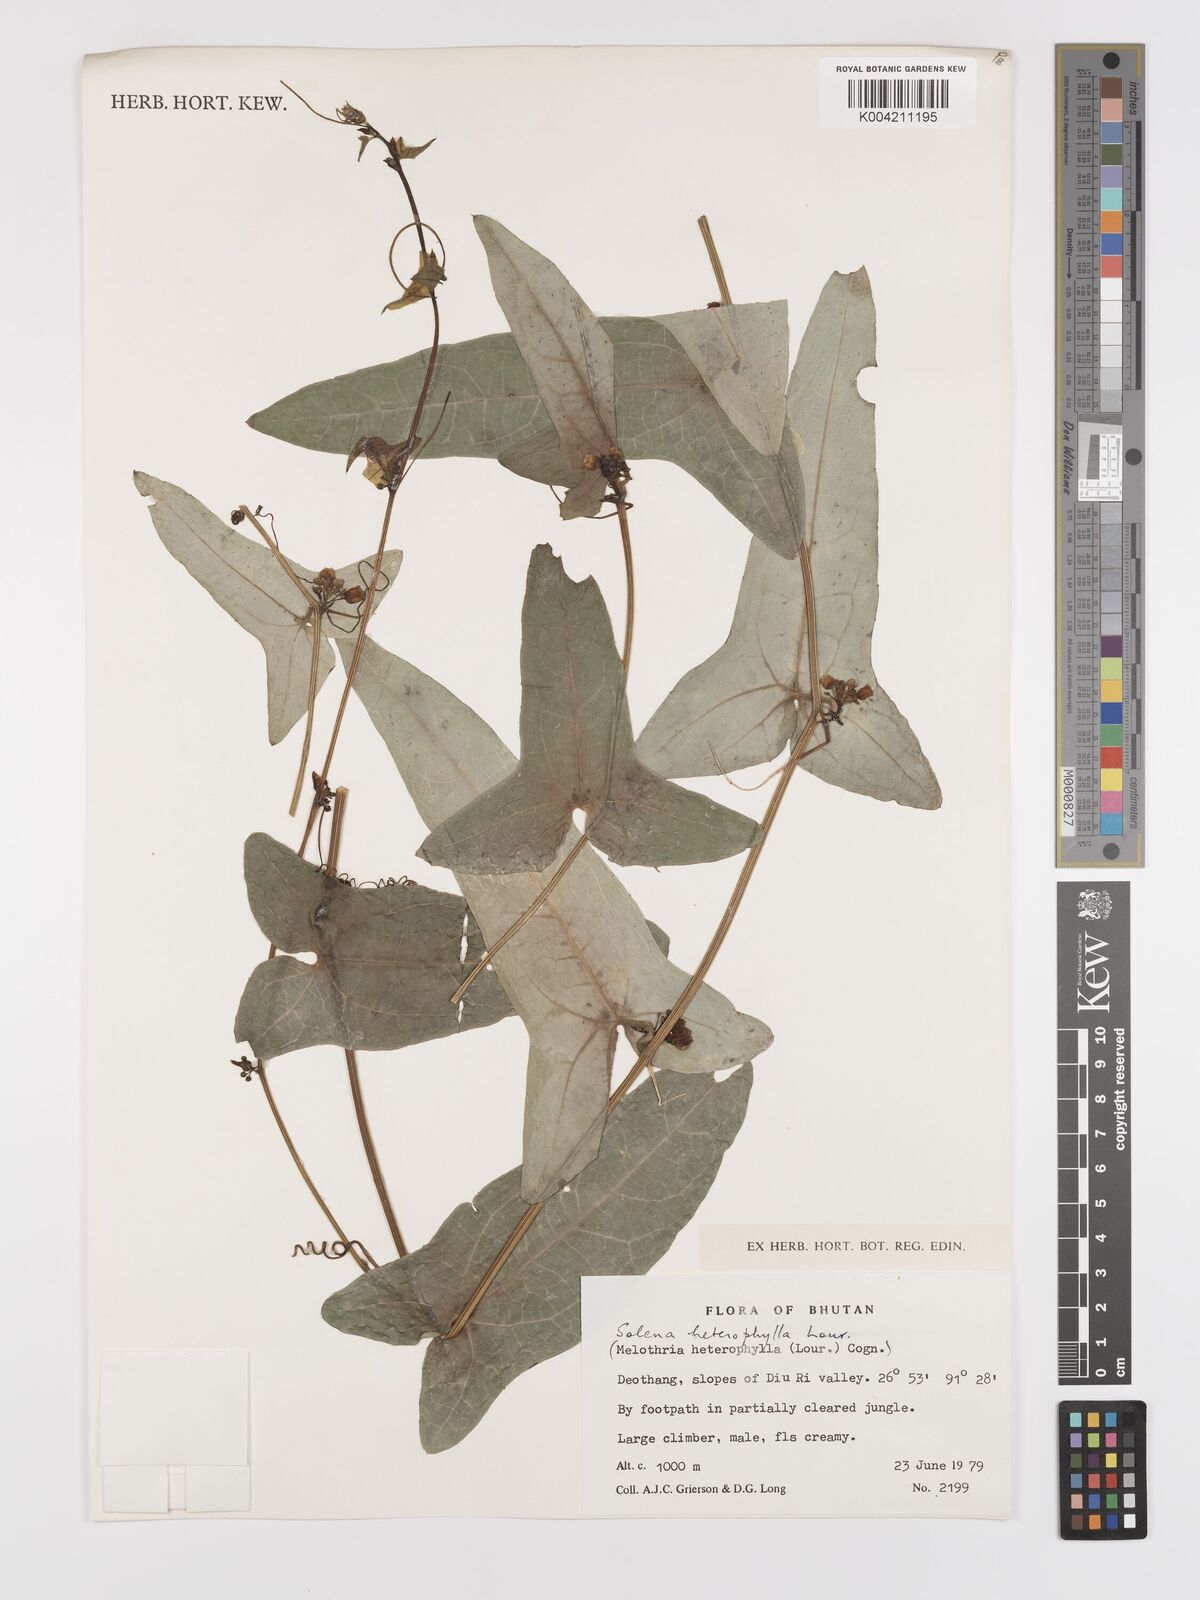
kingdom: Plantae
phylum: Tracheophyta
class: Magnoliopsida
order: Cucurbitales
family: Cucurbitaceae
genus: Solena
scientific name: Solena amplexicaulis
